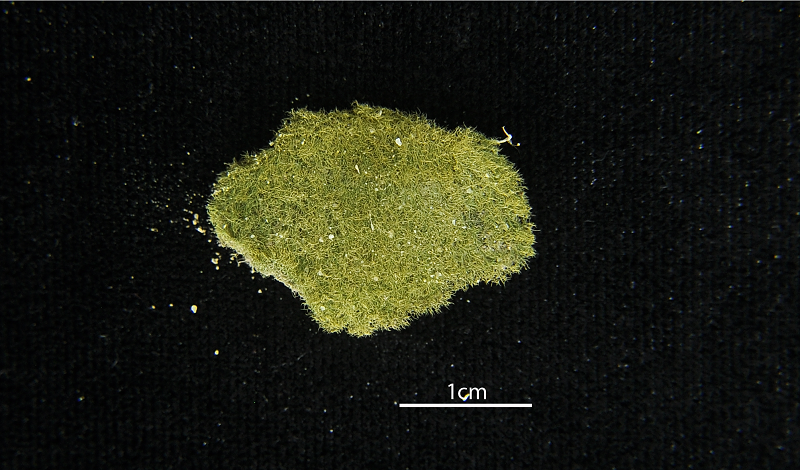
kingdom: Fungi
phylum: Ascomycota
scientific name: Ascomycota
